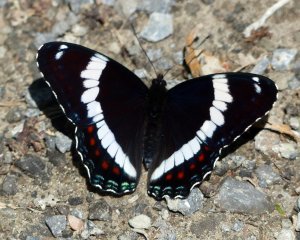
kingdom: Animalia
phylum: Arthropoda
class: Insecta
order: Lepidoptera
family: Nymphalidae
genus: Limenitis
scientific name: Limenitis arthemis
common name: Red-spotted Admiral
